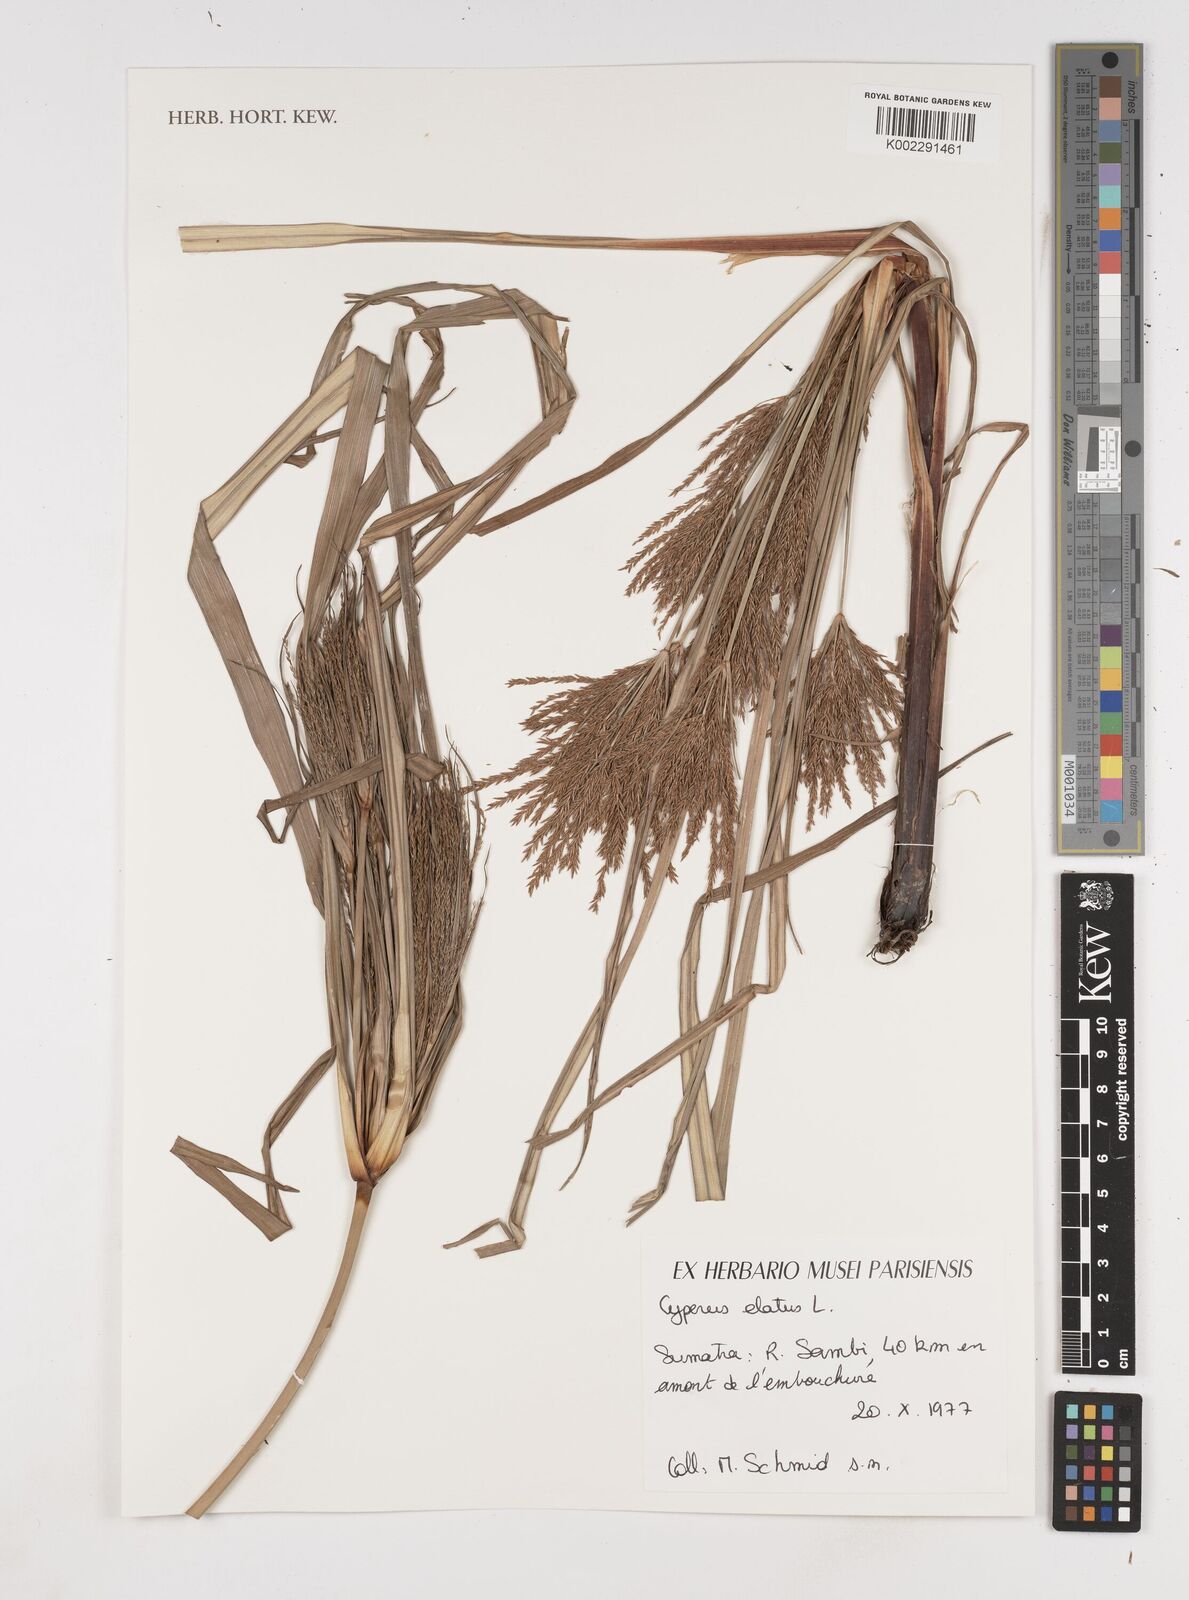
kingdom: Plantae
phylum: Tracheophyta
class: Liliopsida
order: Poales
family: Cyperaceae
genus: Cyperus
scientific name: Cyperus elatus
